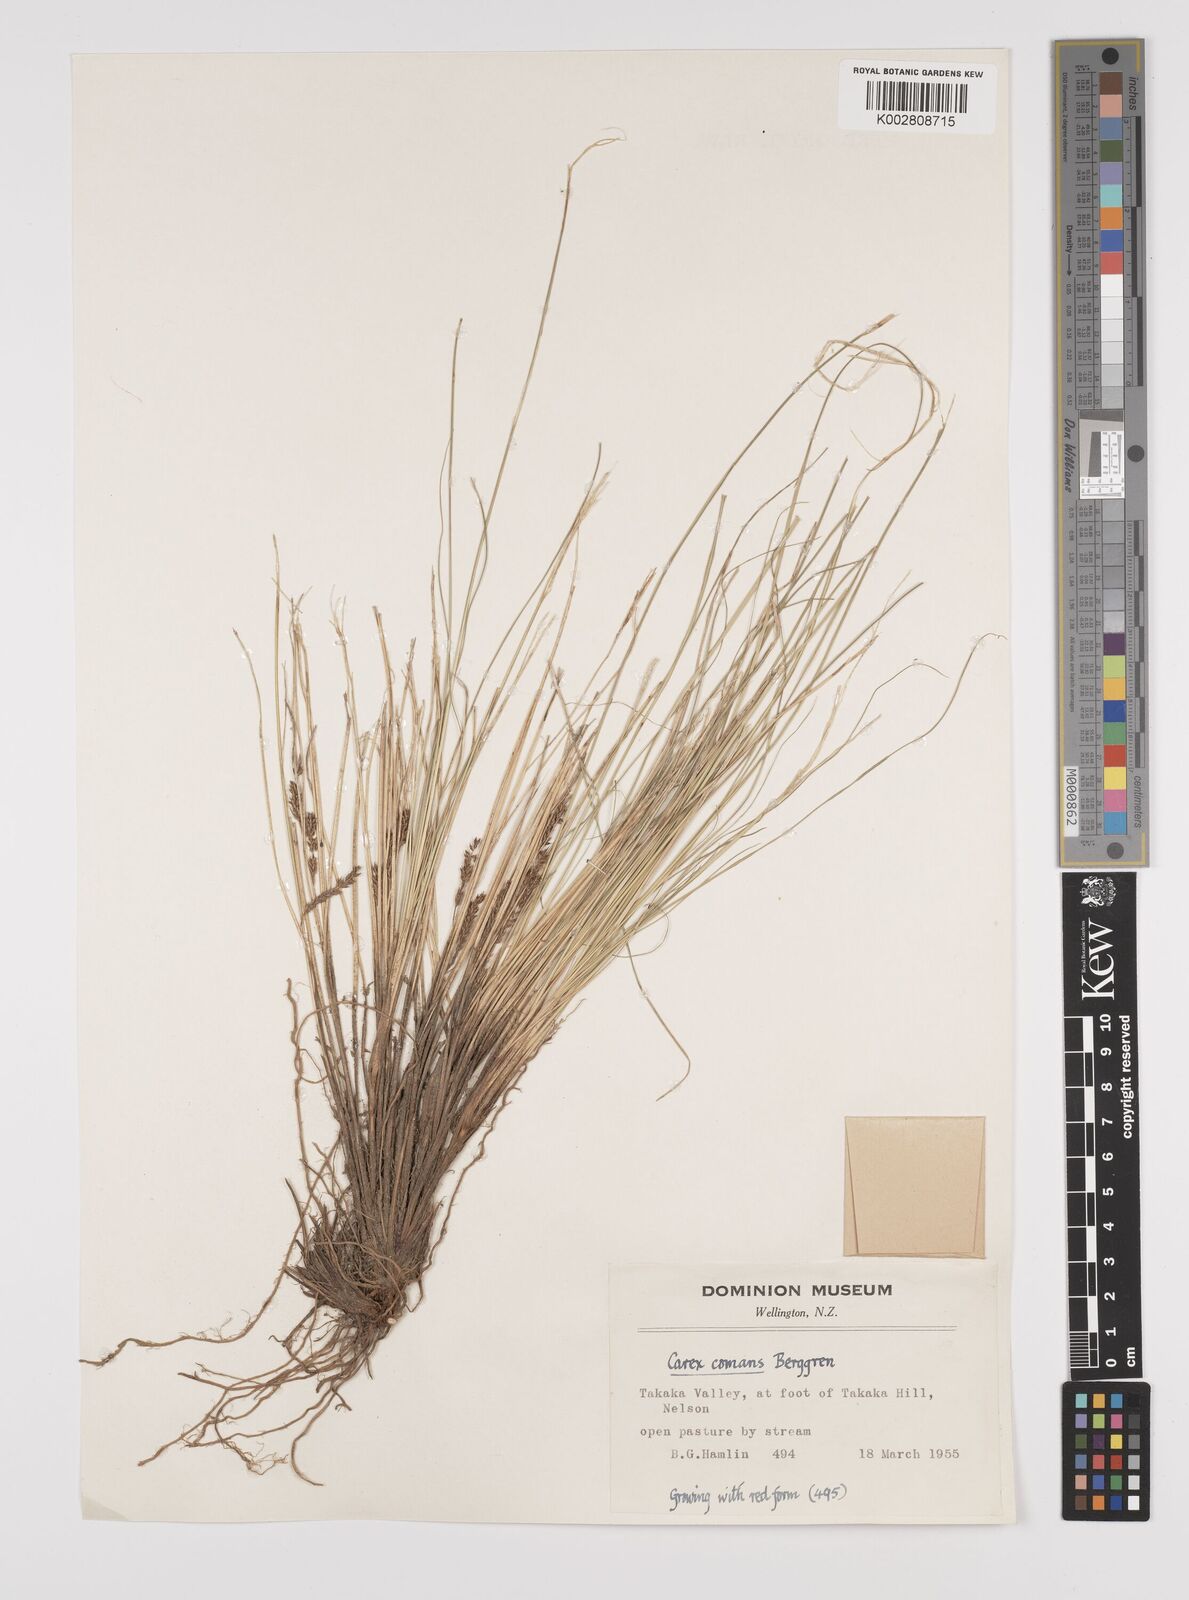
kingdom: Plantae
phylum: Tracheophyta
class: Liliopsida
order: Poales
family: Cyperaceae
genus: Carex
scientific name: Carex comans
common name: Longwood tussock
